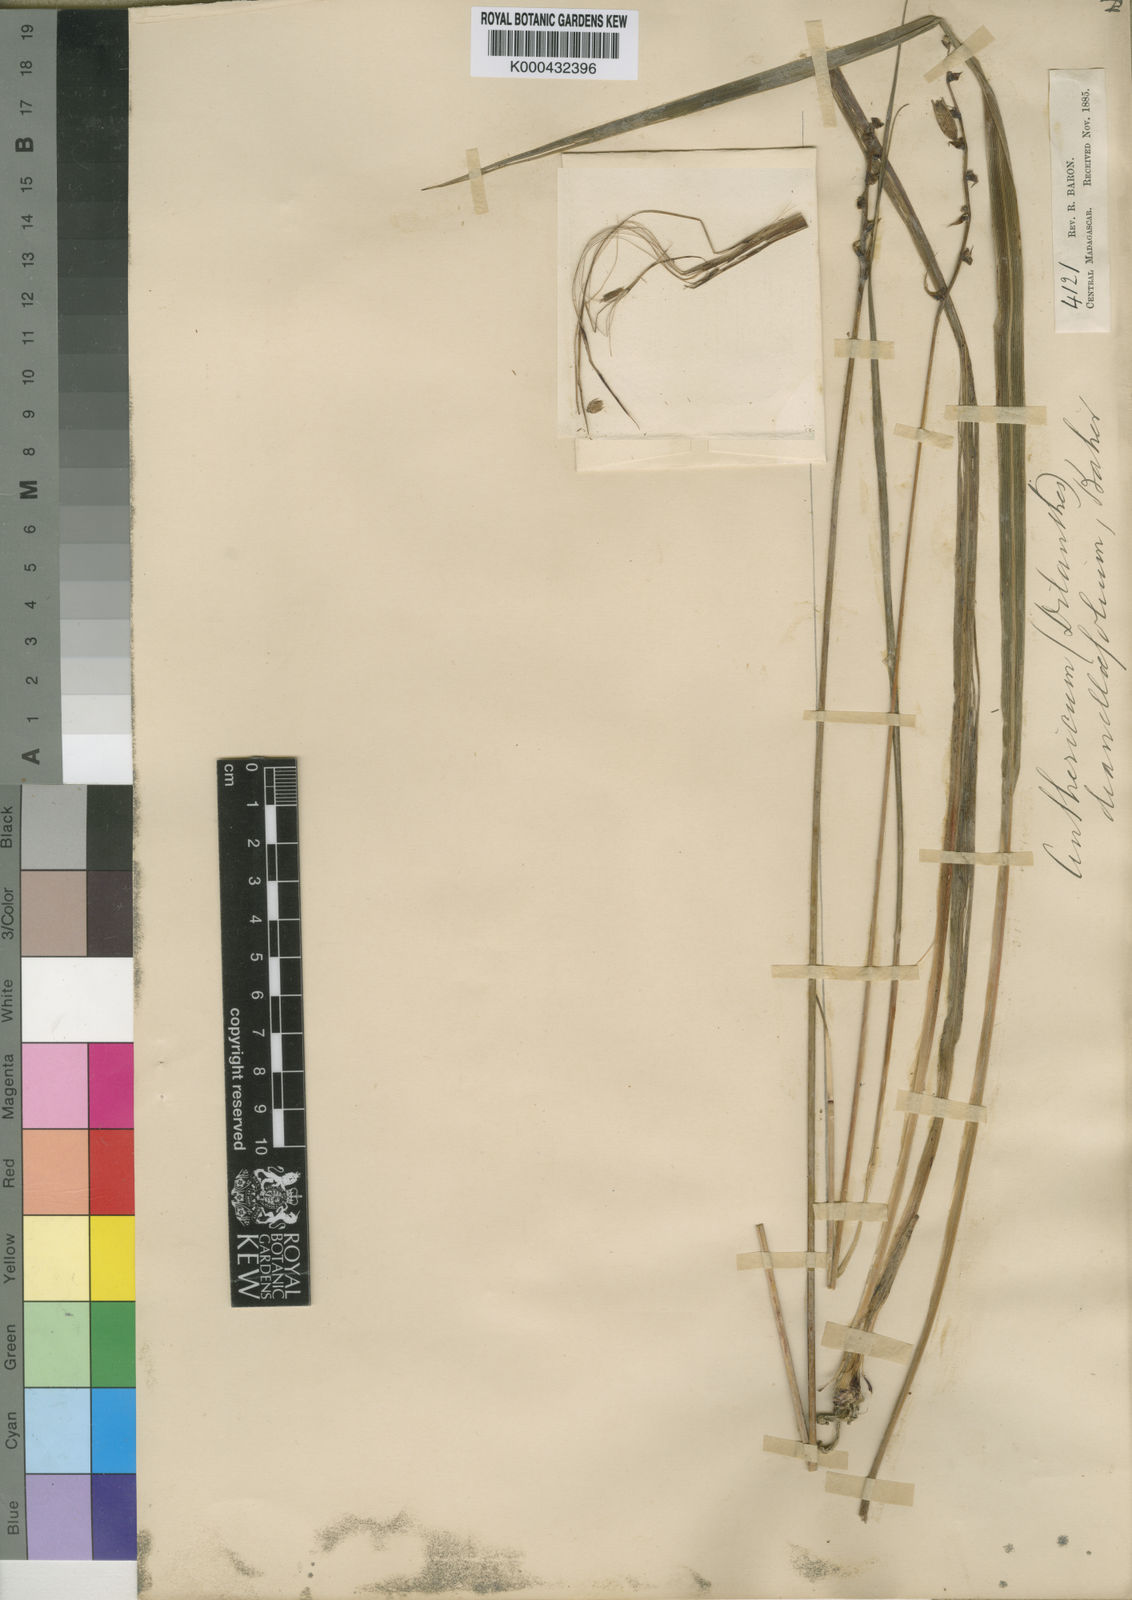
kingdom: Plantae
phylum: Tracheophyta
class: Liliopsida
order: Asparagales
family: Asparagaceae
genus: Chlorophytum
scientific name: Chlorophytum dianellifolium
